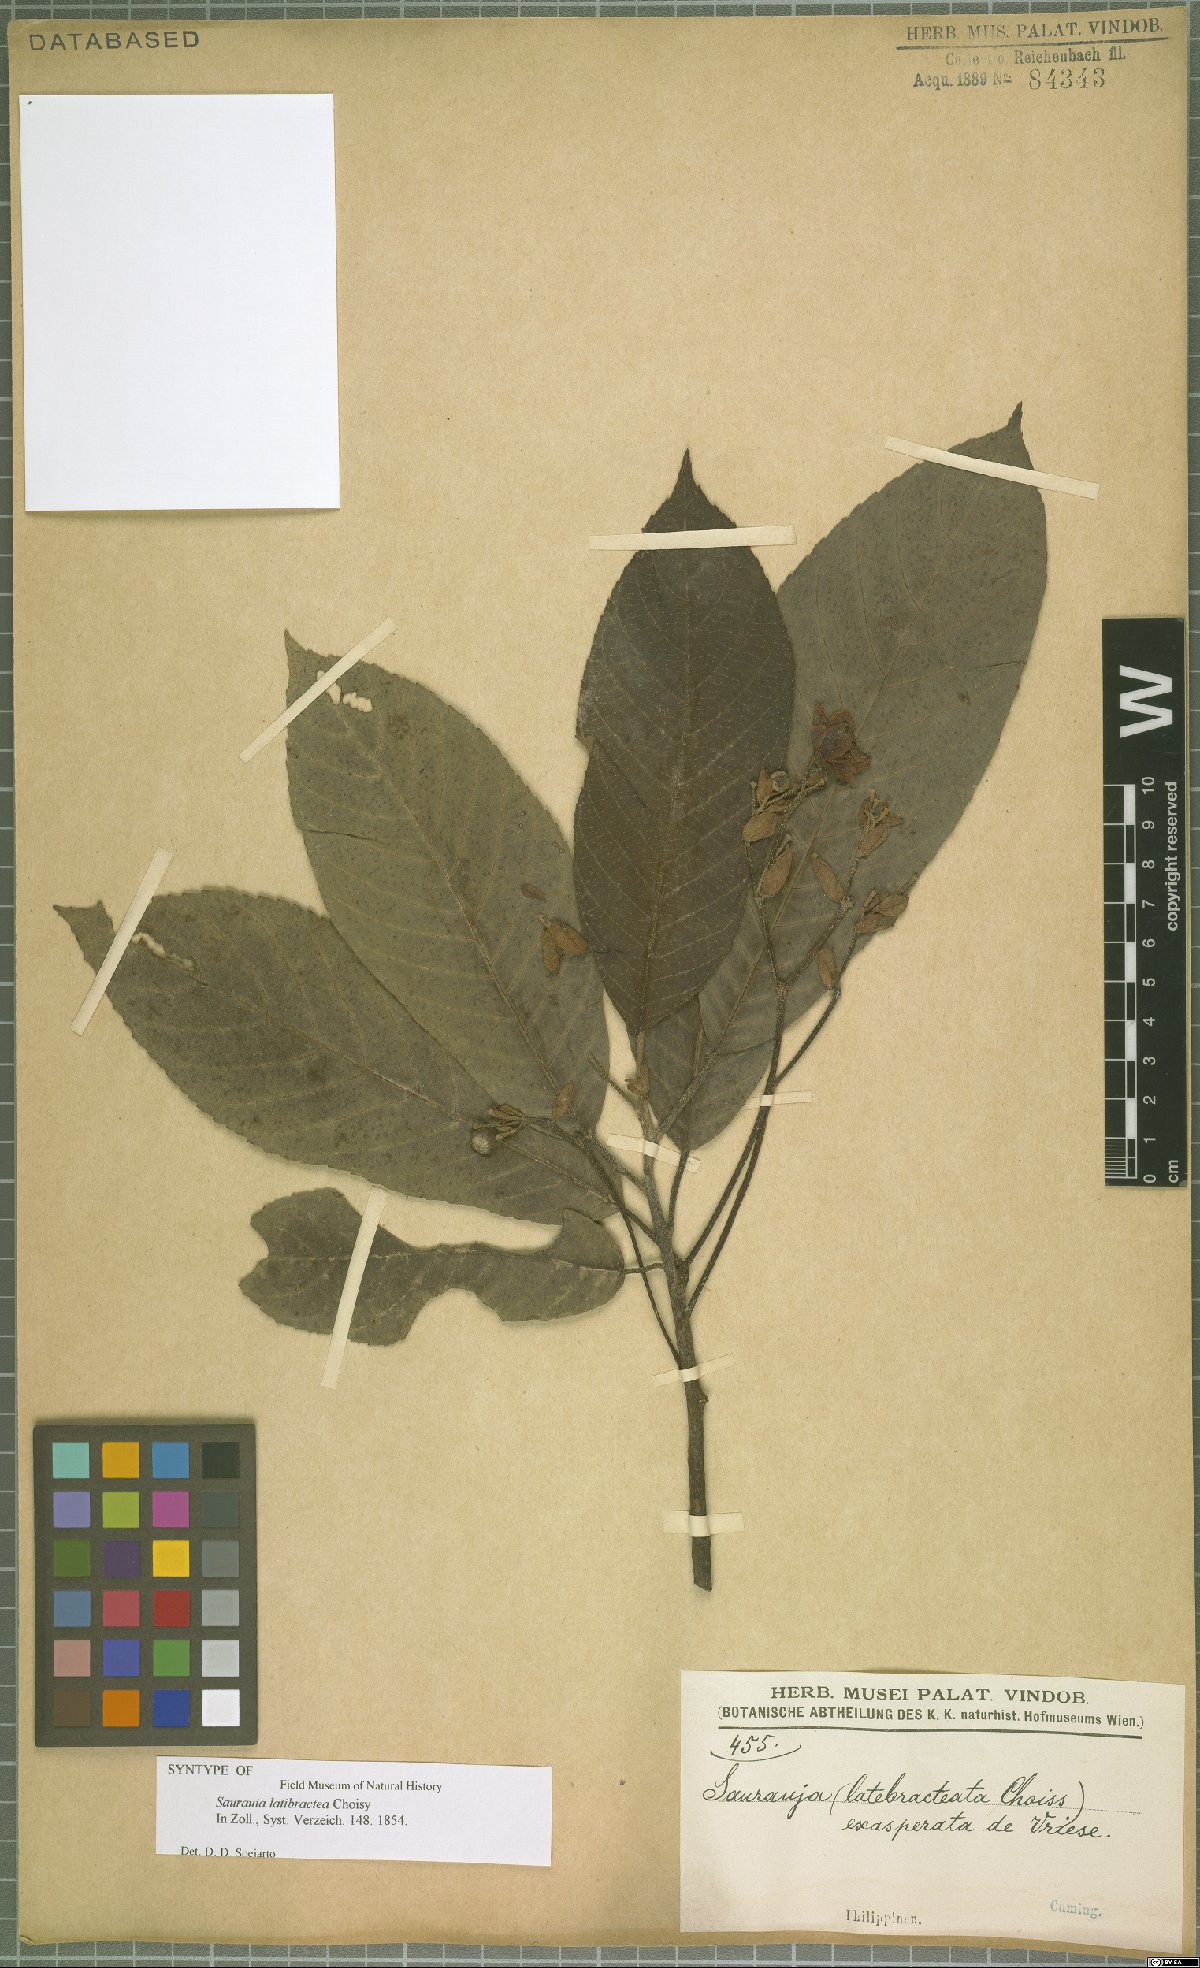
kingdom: Plantae
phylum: Tracheophyta
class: Magnoliopsida
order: Ericales
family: Actinidiaceae
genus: Saurauia
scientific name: Saurauia latibractea
